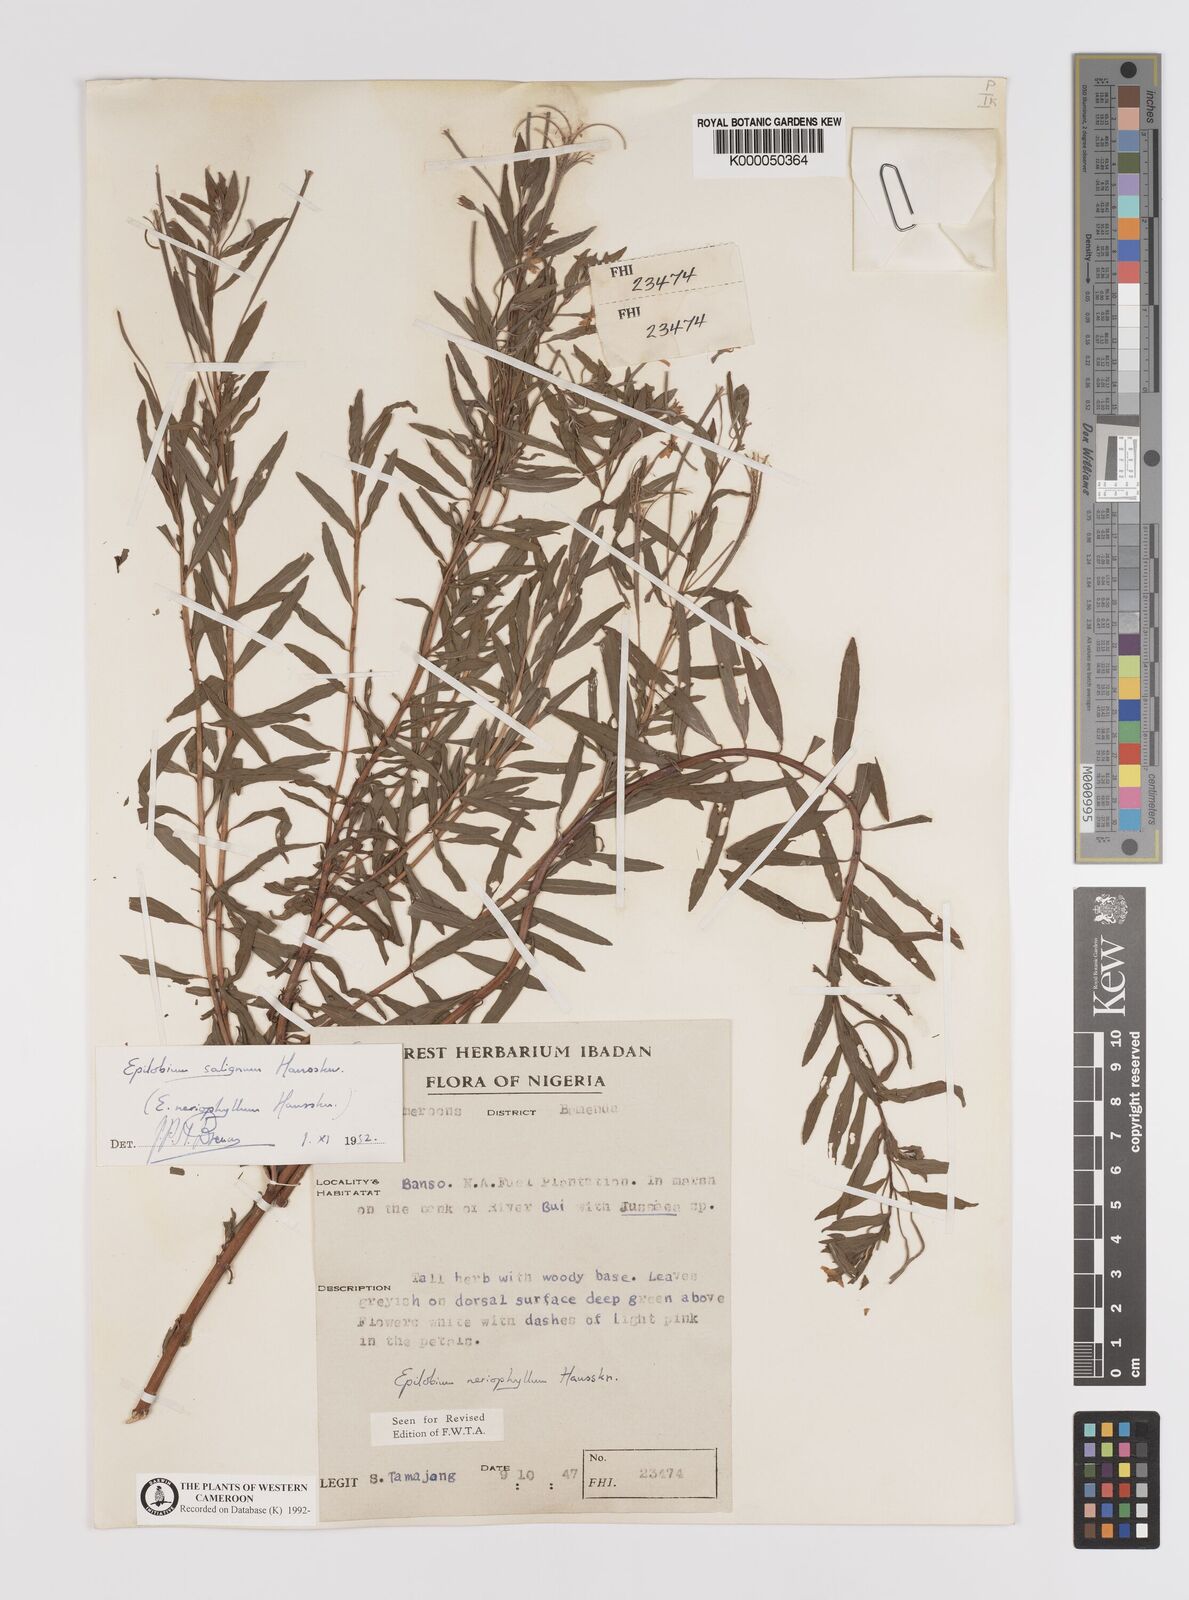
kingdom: Plantae
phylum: Tracheophyta
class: Magnoliopsida
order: Myrtales
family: Onagraceae
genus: Epilobium
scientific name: Epilobium salignum
